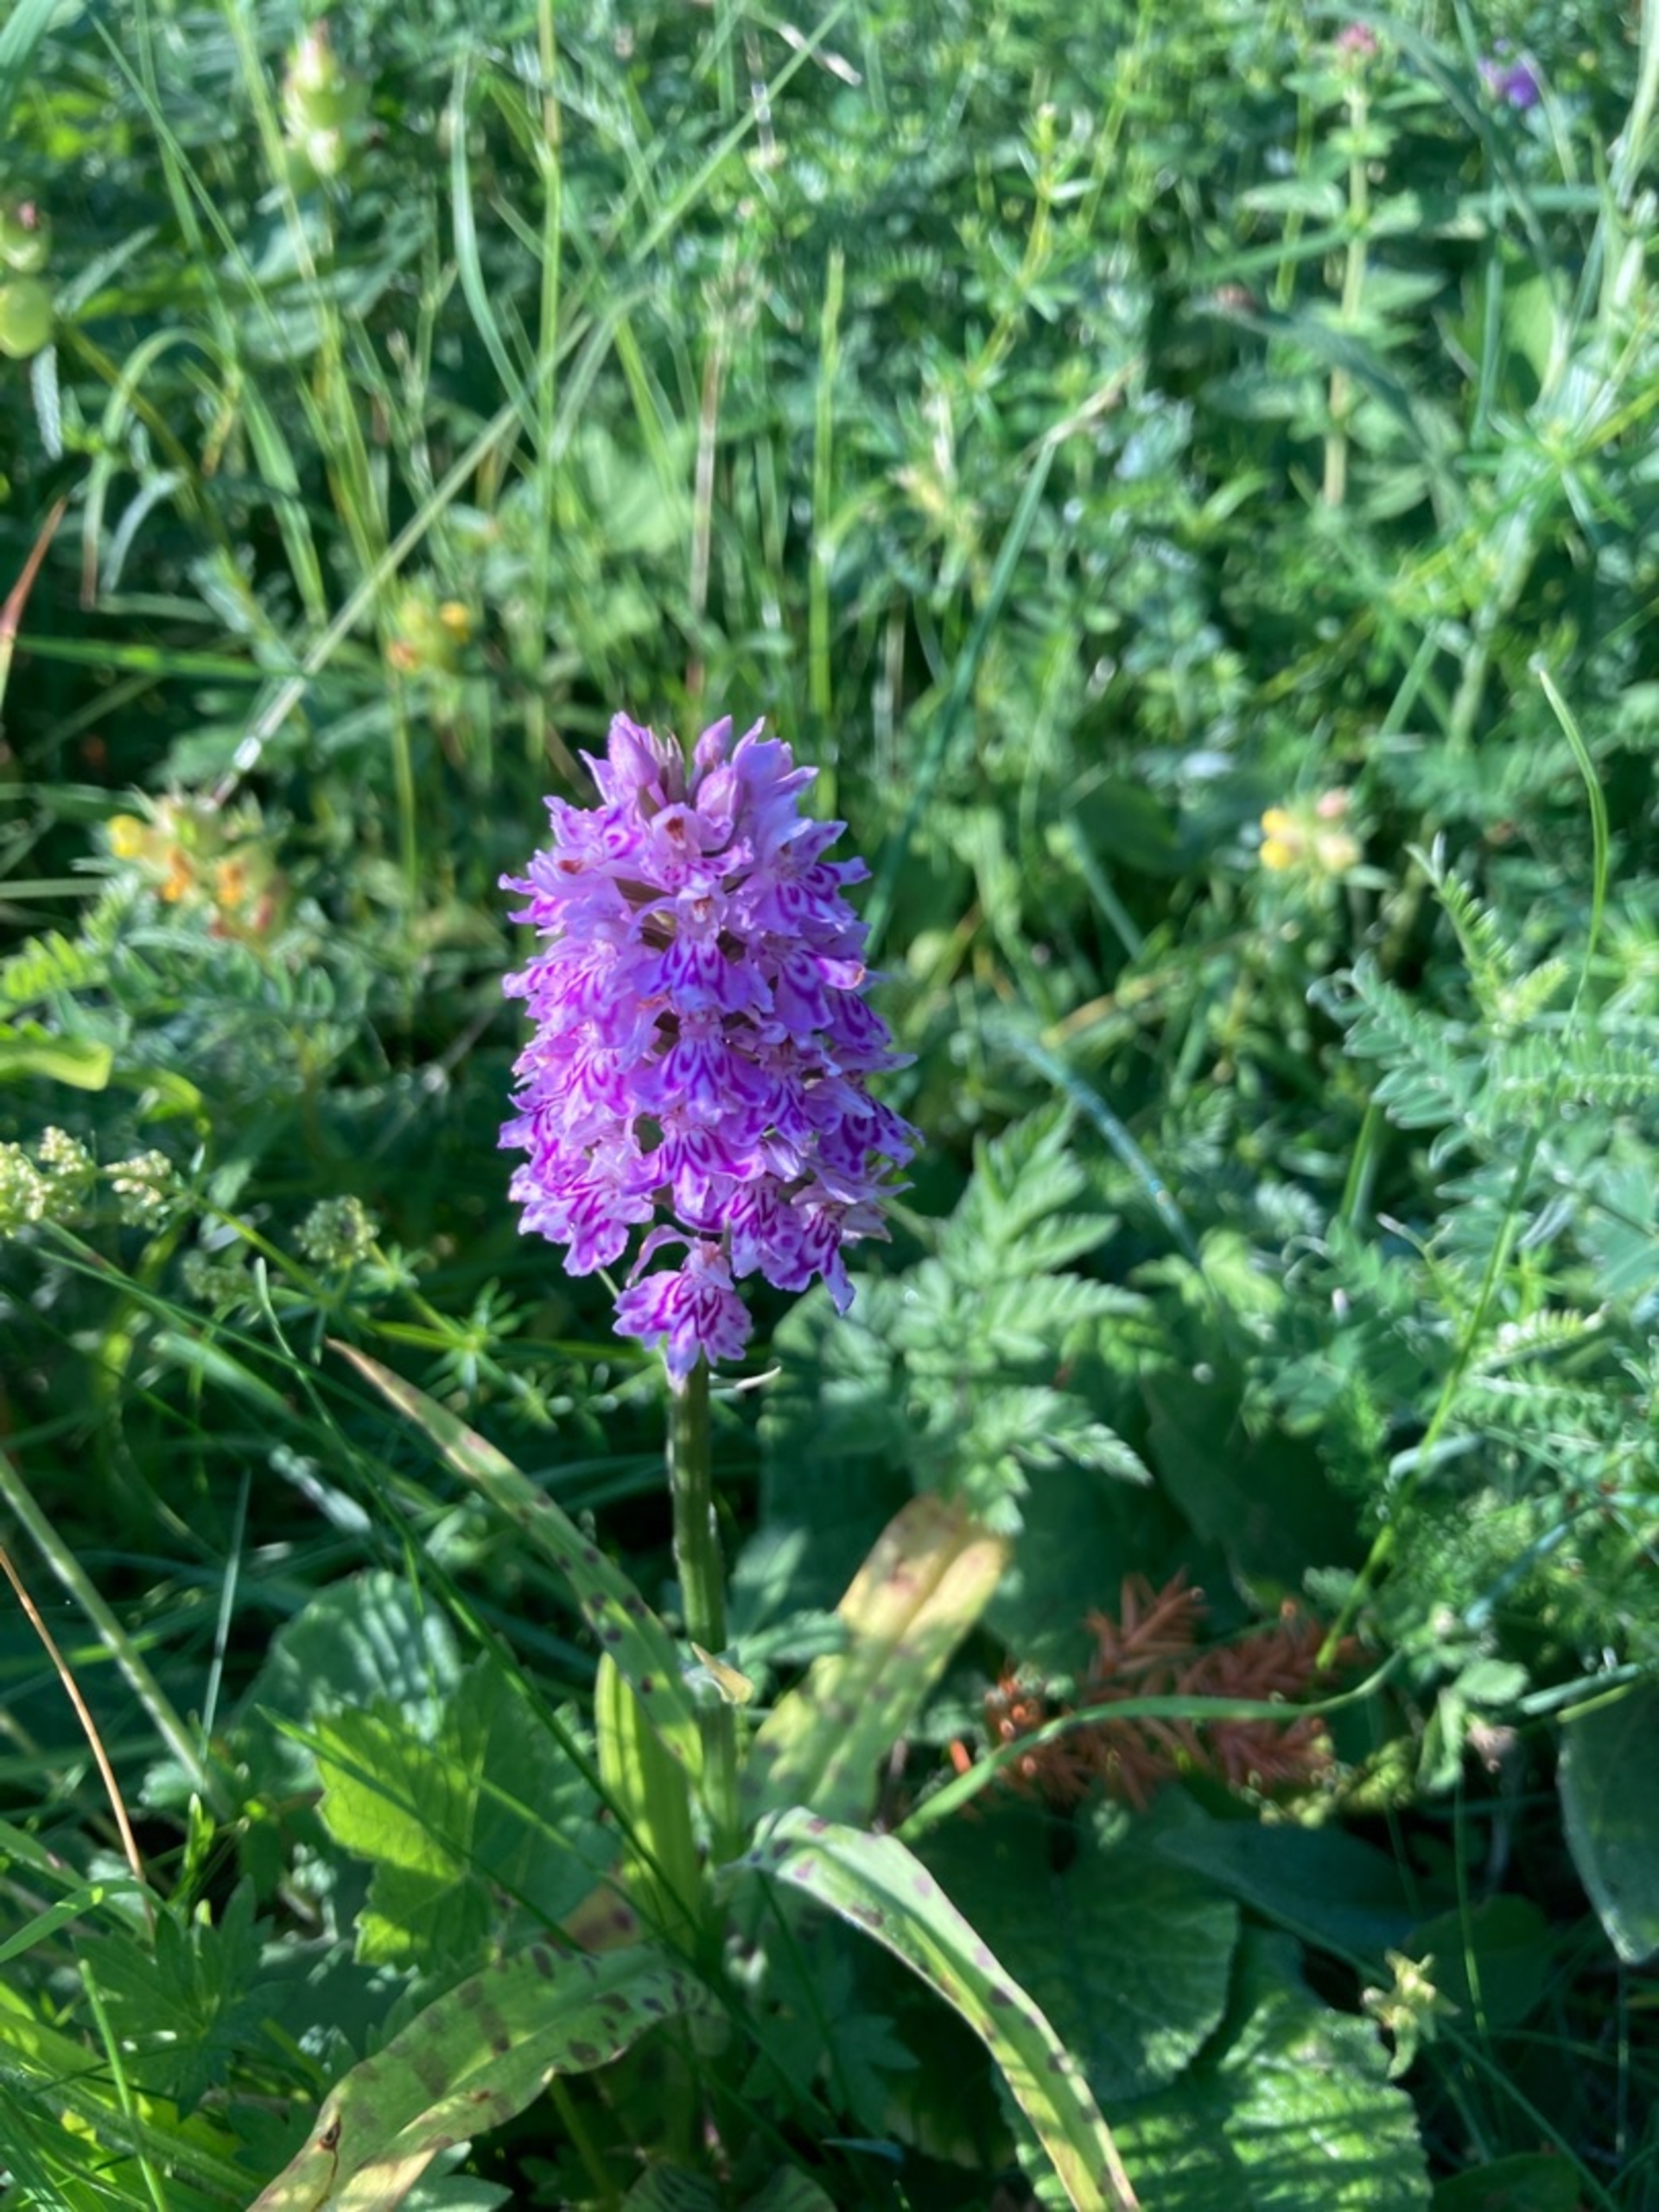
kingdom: Plantae
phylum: Tracheophyta
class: Liliopsida
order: Asparagales
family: Orchidaceae
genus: Dactylorhiza
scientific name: Dactylorhiza maculata
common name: Skov-gøgeurt
